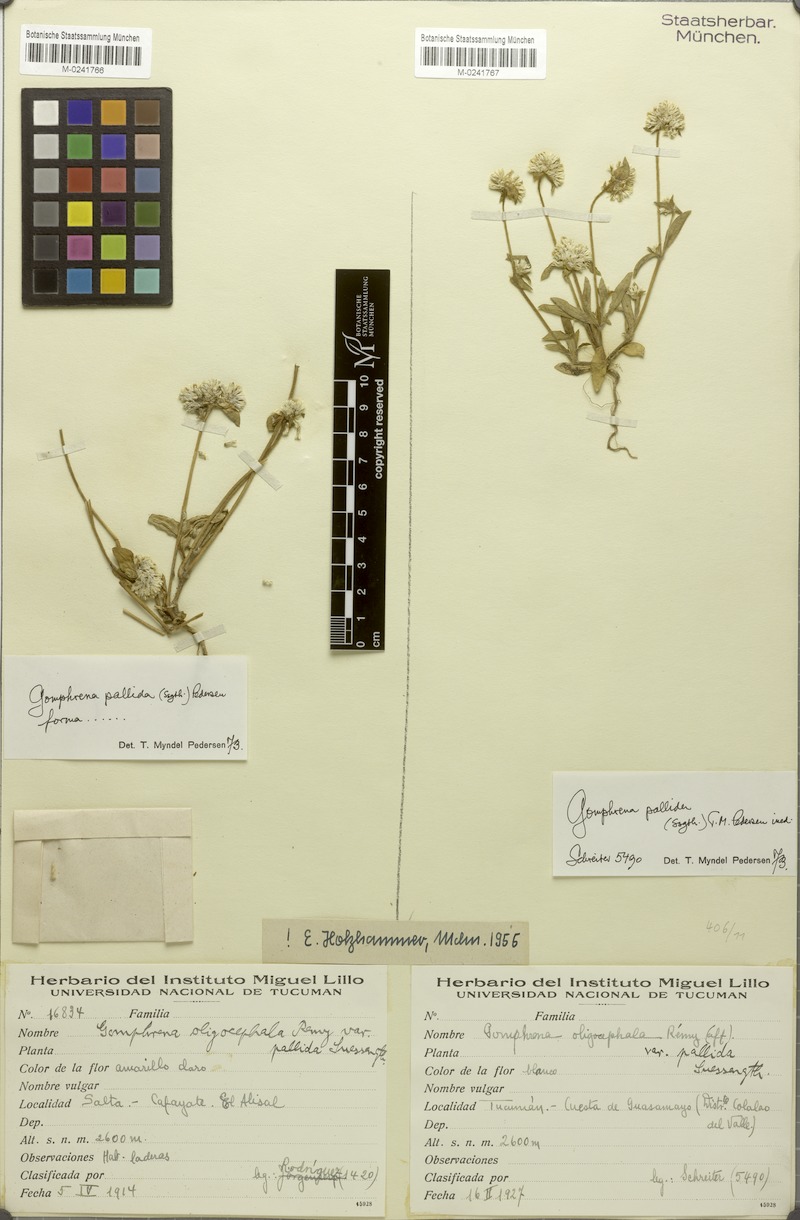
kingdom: Plantae
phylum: Tracheophyta
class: Magnoliopsida
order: Caryophyllales
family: Amaranthaceae
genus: Gomphrena
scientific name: Gomphrena pallida
